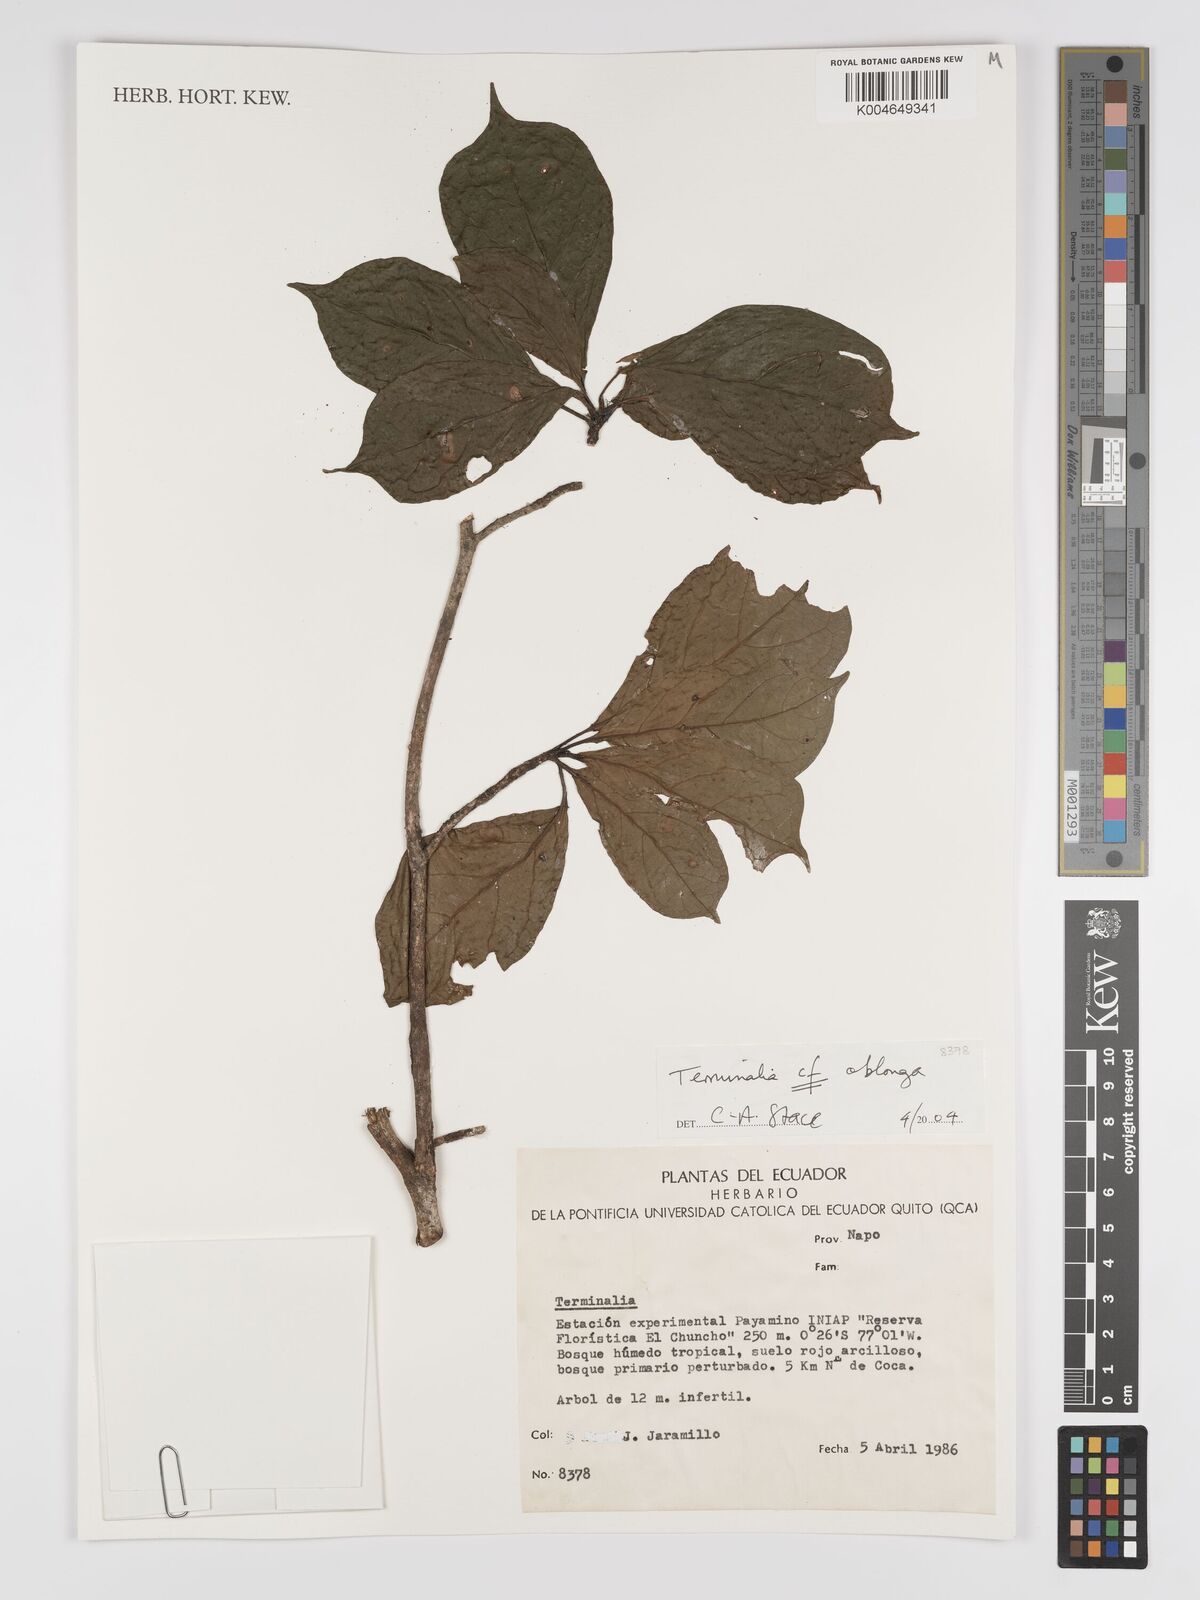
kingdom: Plantae
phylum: Tracheophyta
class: Magnoliopsida
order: Myrtales
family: Combretaceae
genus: Terminalia
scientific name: Terminalia oblonga
